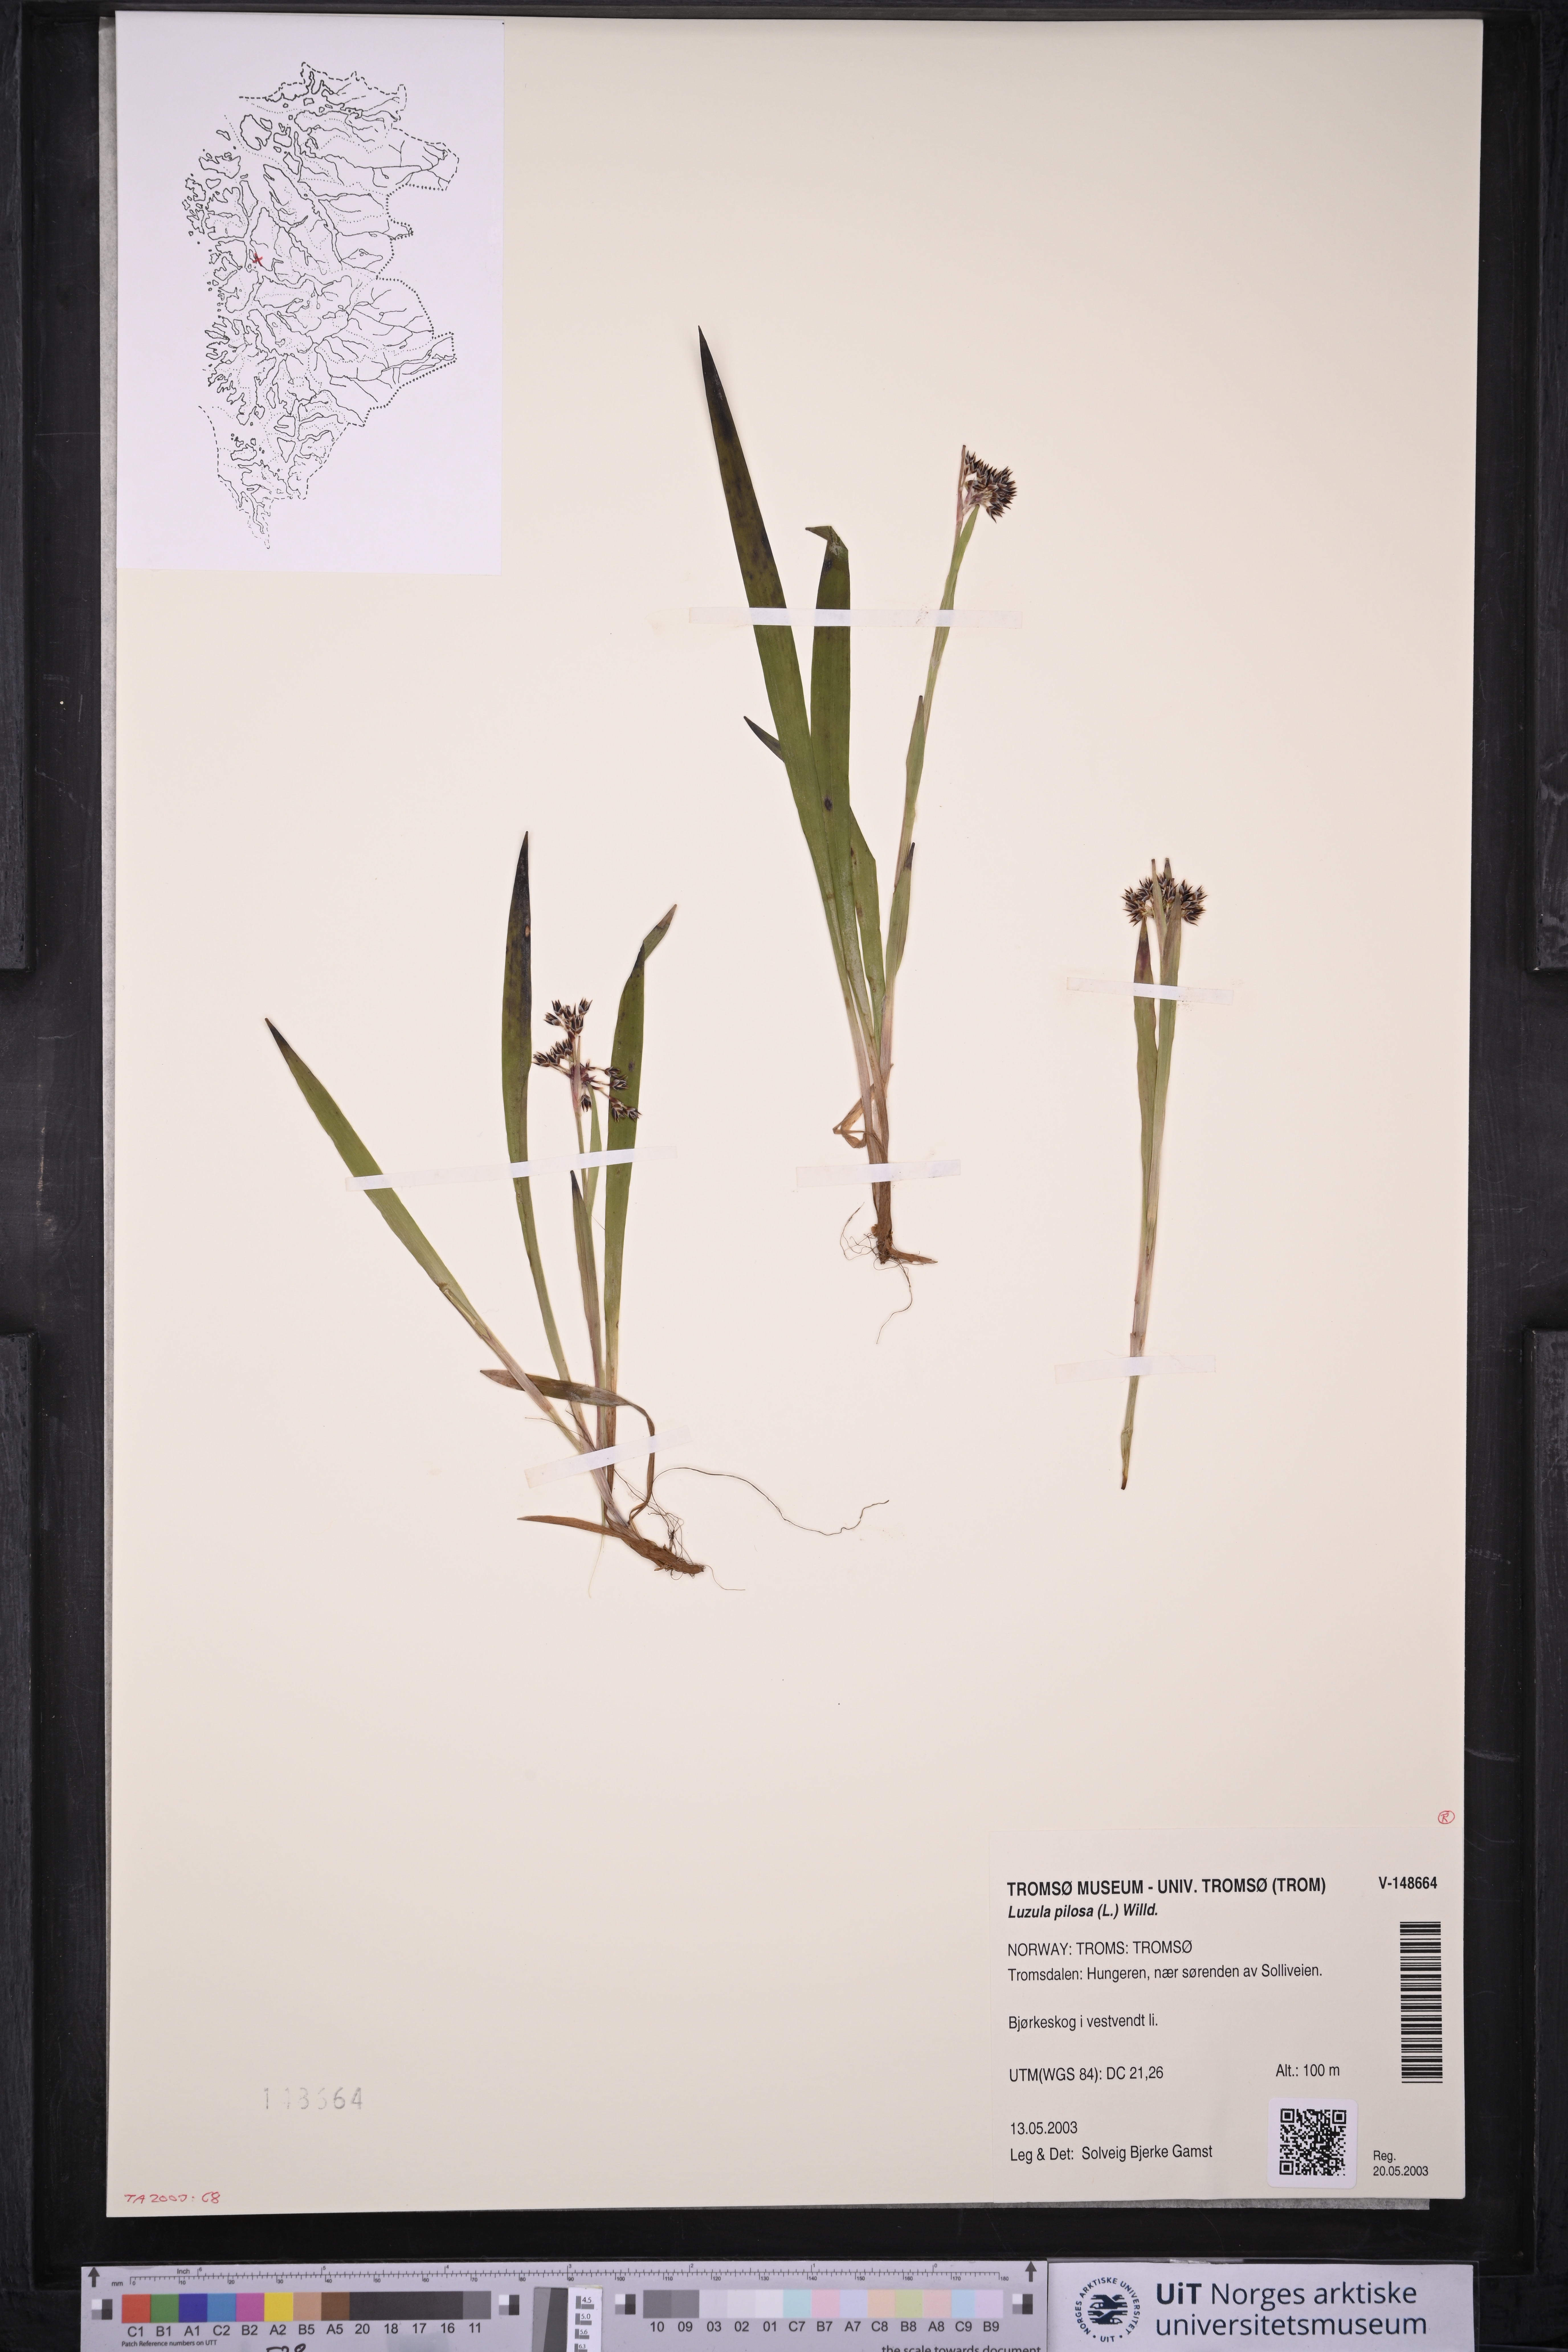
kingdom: Plantae
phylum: Tracheophyta
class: Liliopsida
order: Poales
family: Juncaceae
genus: Luzula
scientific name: Luzula pilosa
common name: Hairy wood-rush
